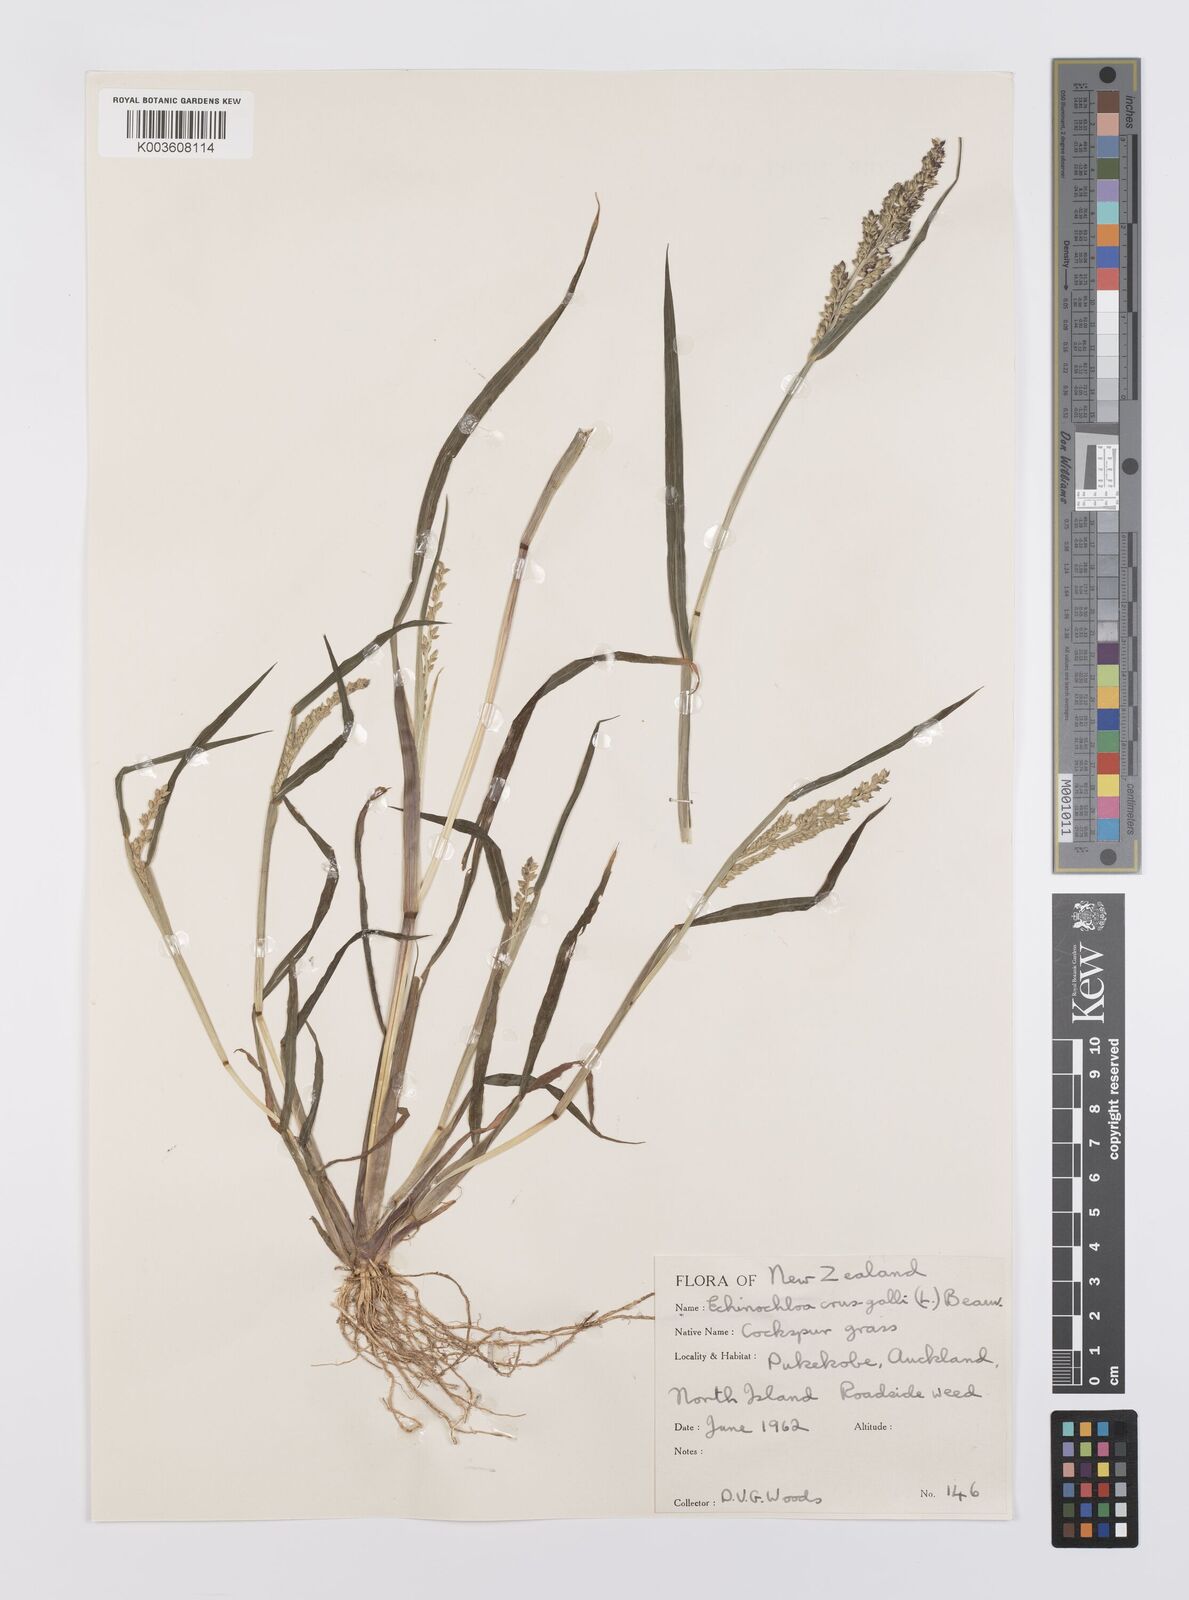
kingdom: Plantae
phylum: Tracheophyta
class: Liliopsida
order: Poales
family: Poaceae
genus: Echinochloa
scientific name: Echinochloa crus-galli
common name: Cockspur
